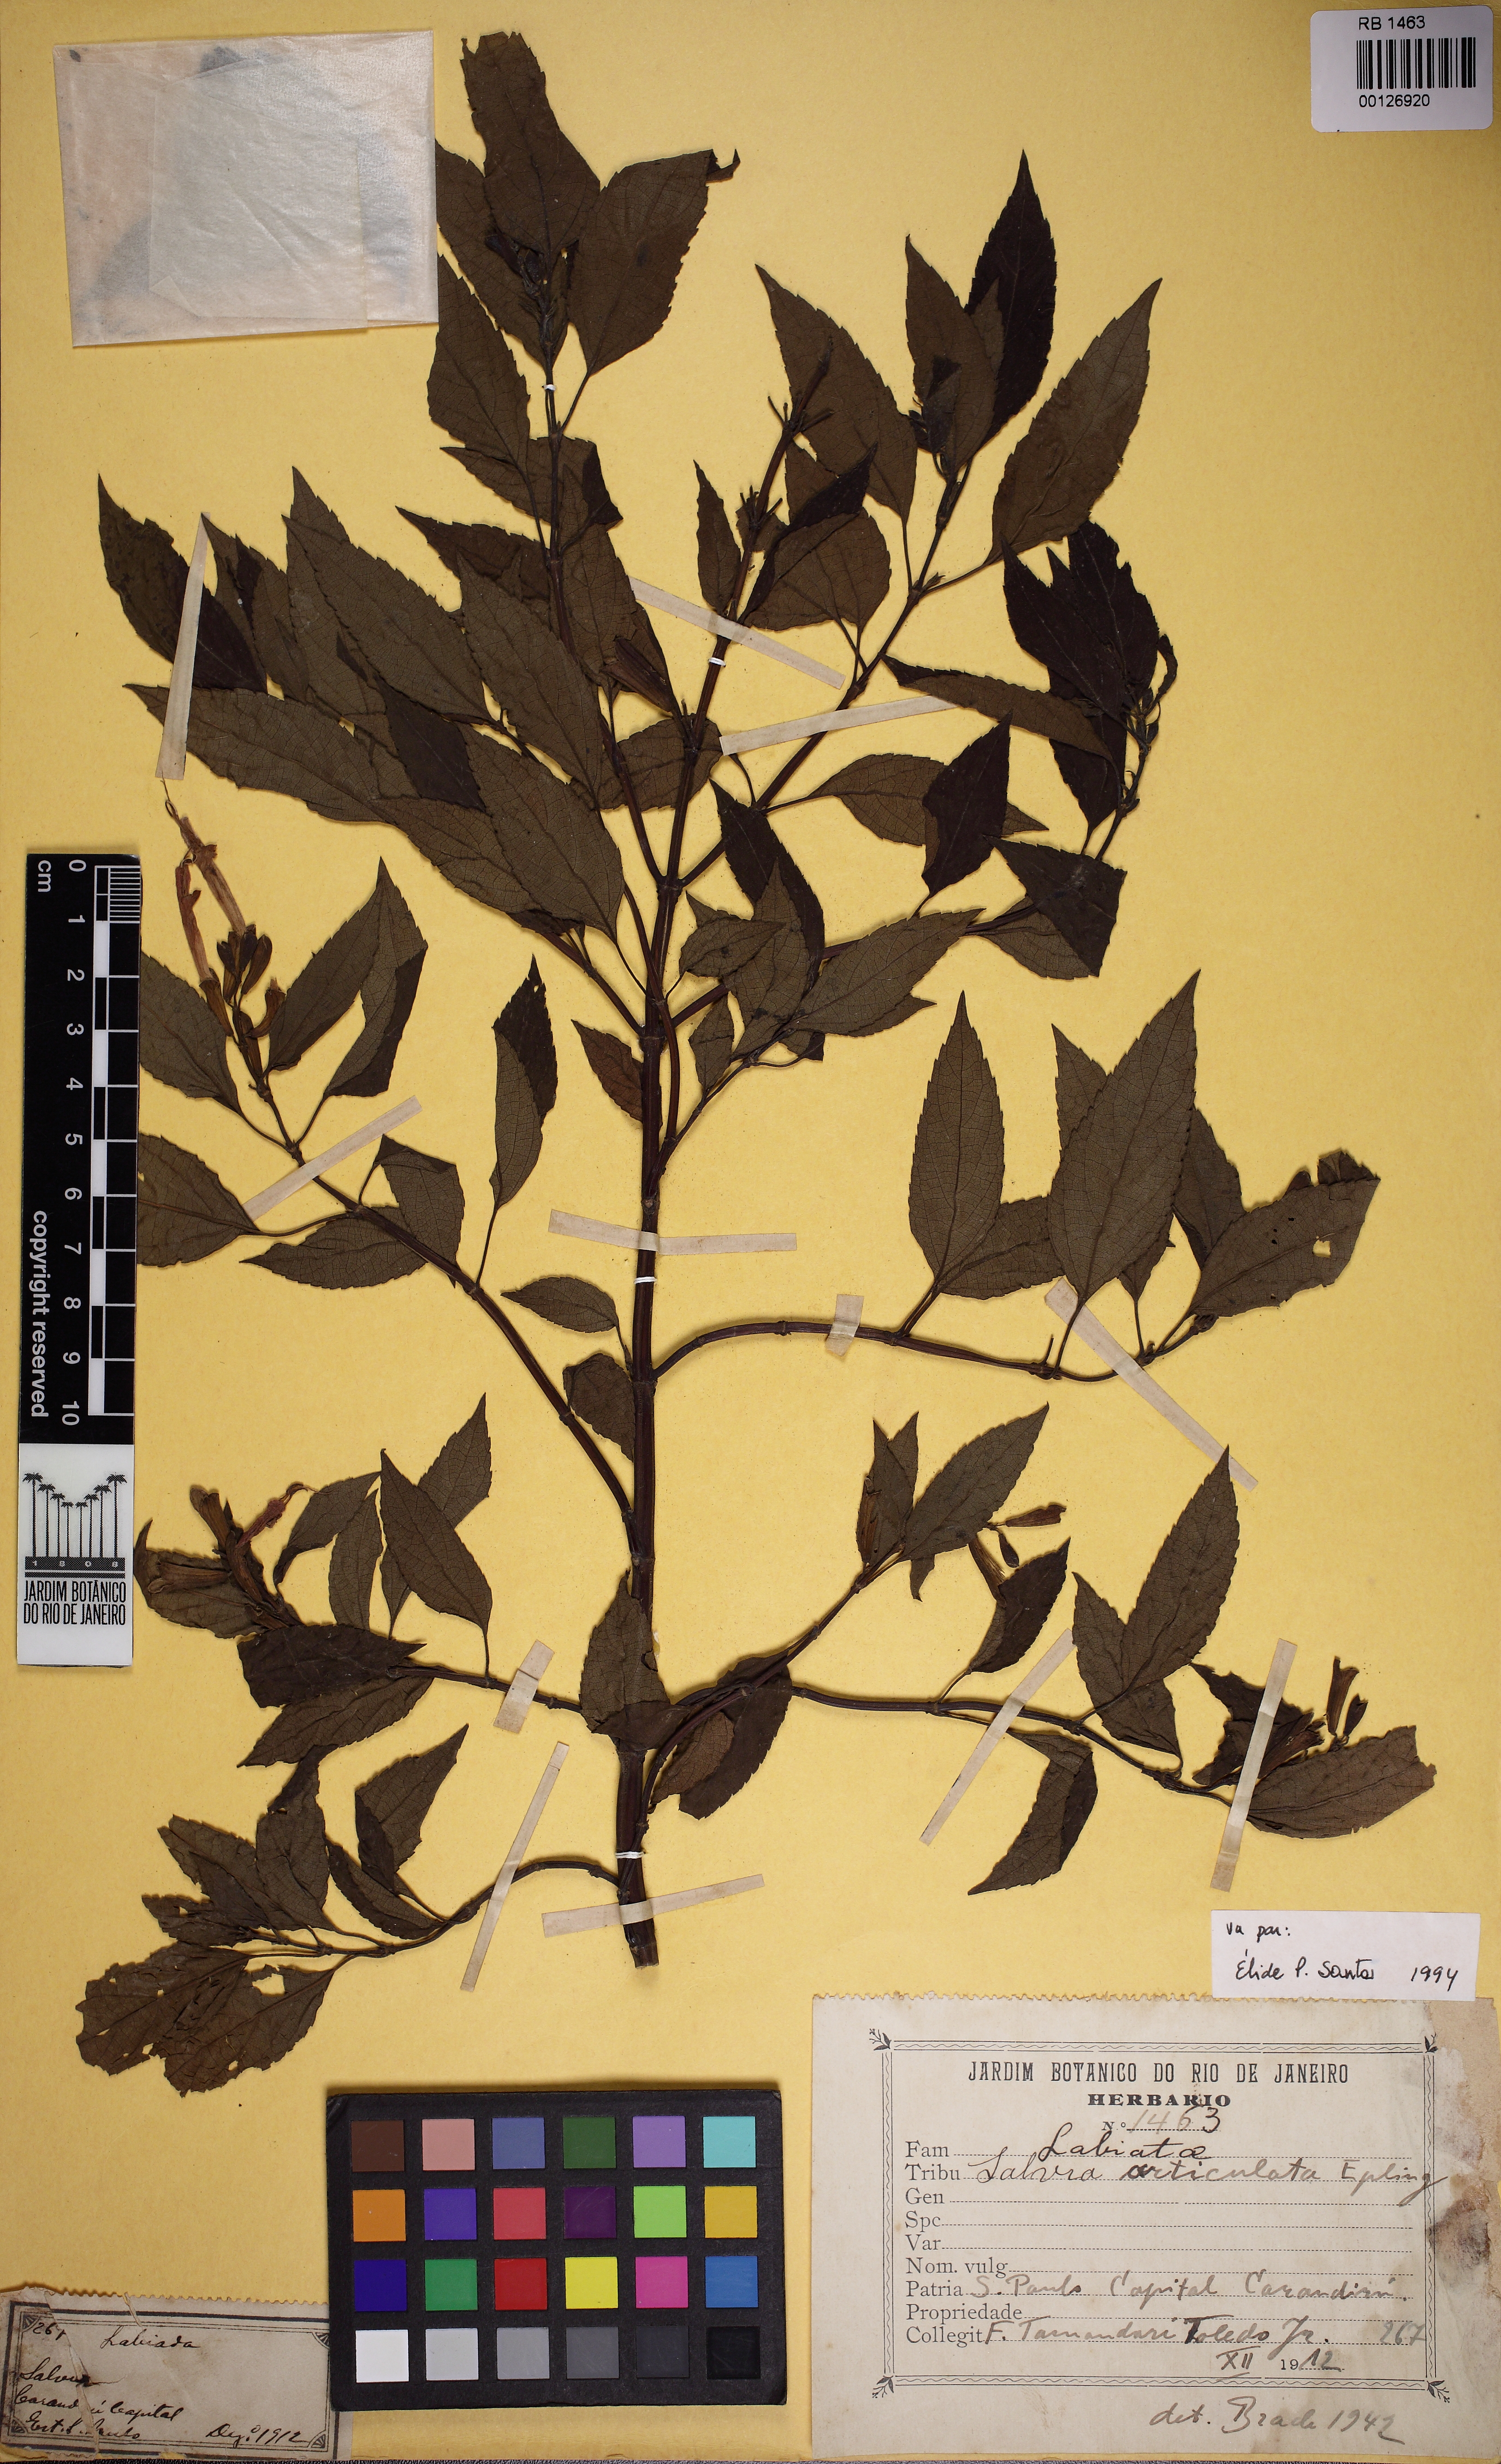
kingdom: Plantae
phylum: Tracheophyta
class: Magnoliopsida
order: Lamiales
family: Lamiaceae
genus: Salvia
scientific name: Salvia articulata
